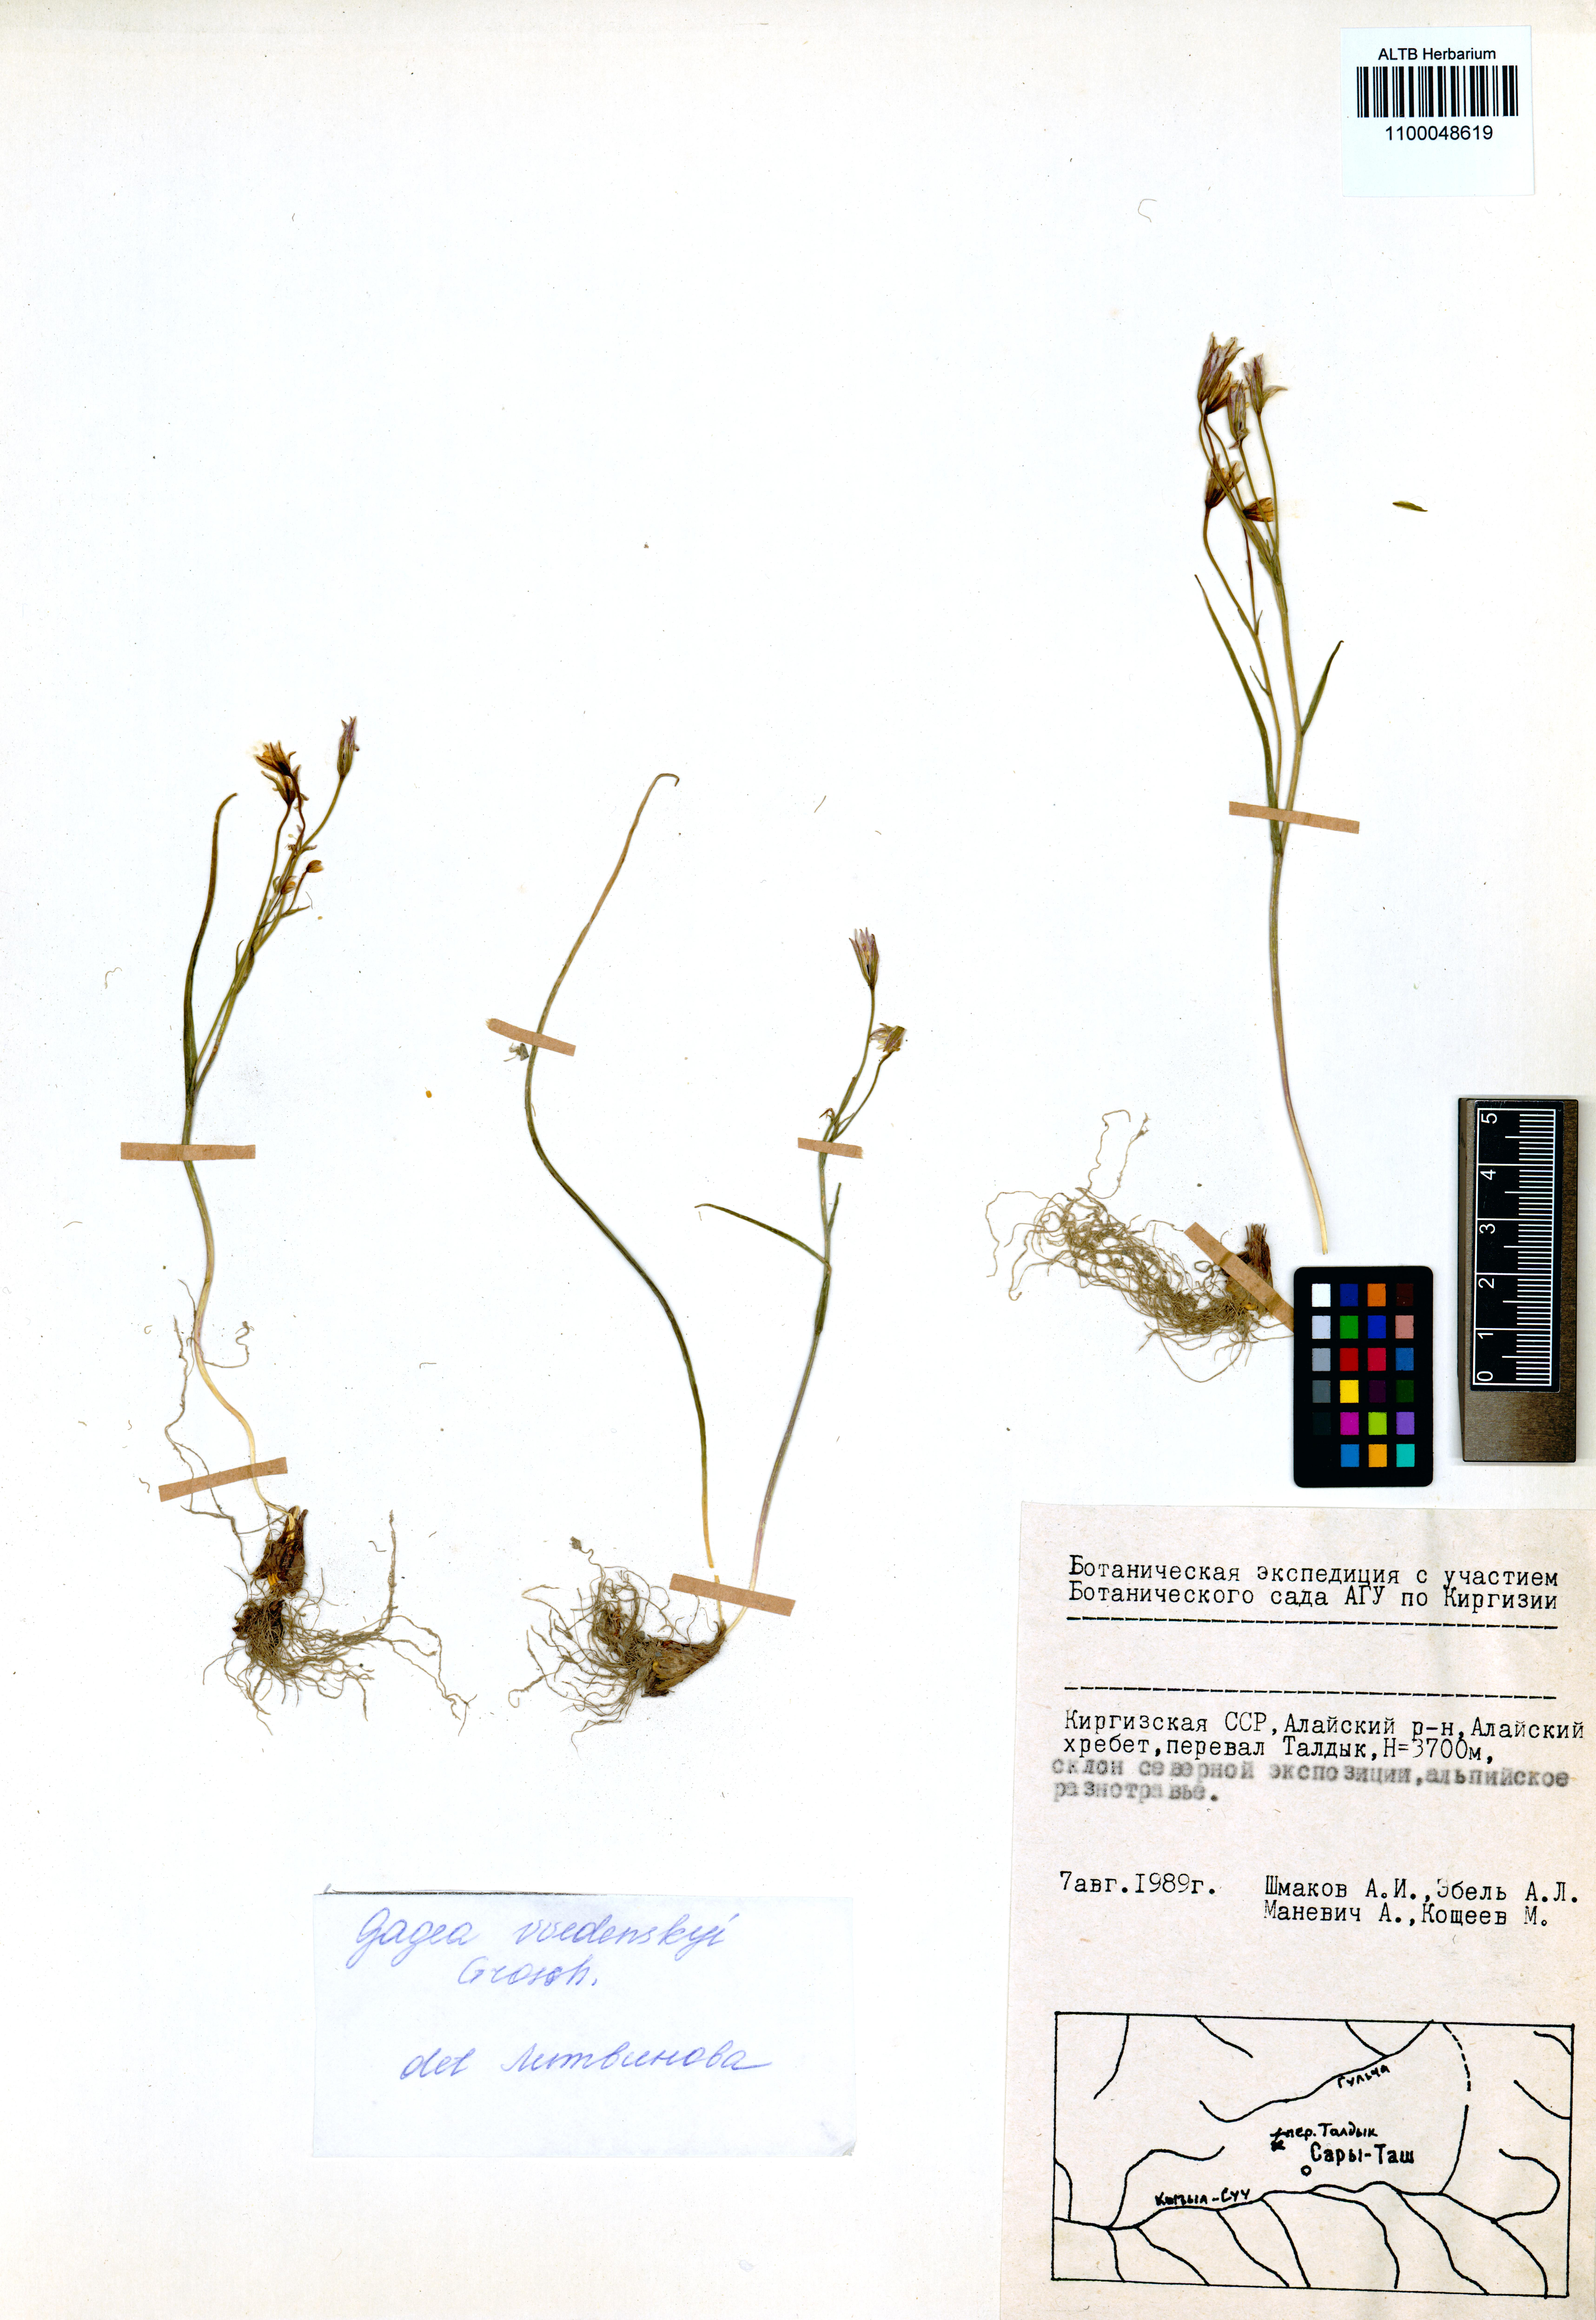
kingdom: Plantae
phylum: Tracheophyta
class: Liliopsida
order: Liliales
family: Liliaceae
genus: Gagea
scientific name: Gagea vvedenskyi
